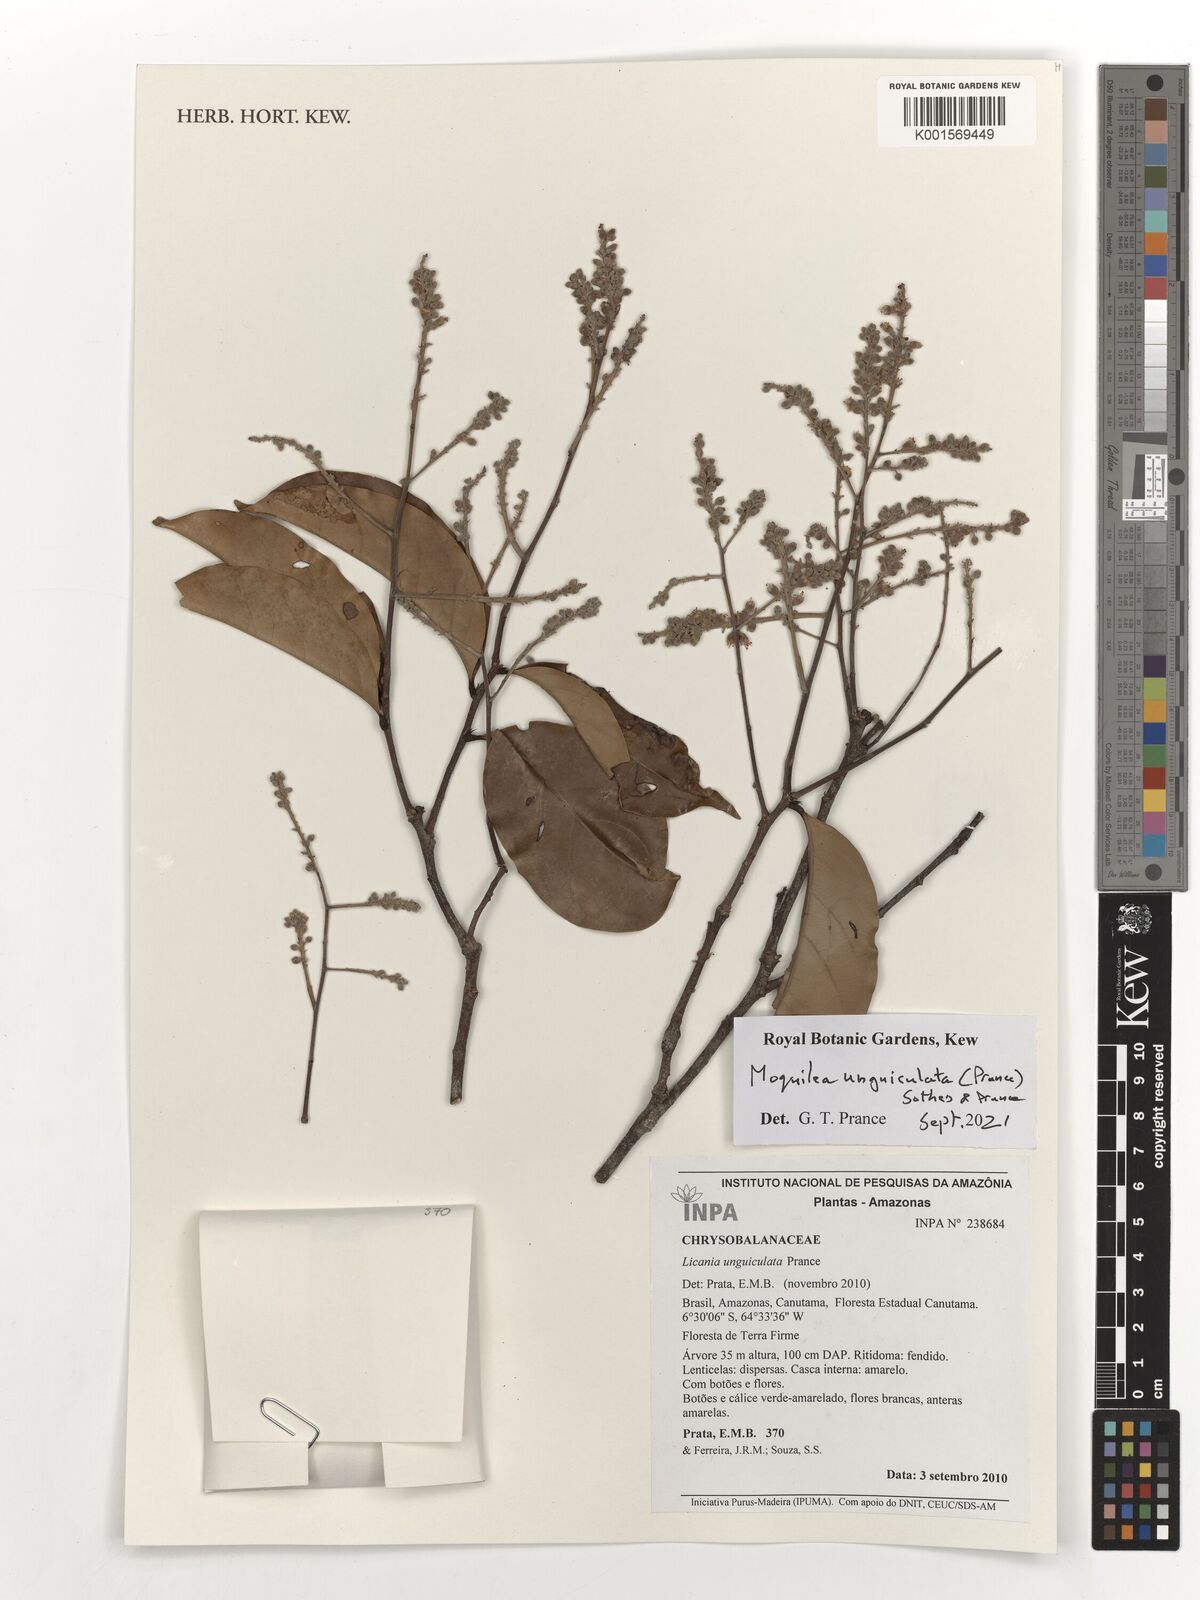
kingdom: Plantae
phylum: Tracheophyta
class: Magnoliopsida
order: Malpighiales
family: Chrysobalanaceae
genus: Moquilea
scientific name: Moquilea unguiculata
